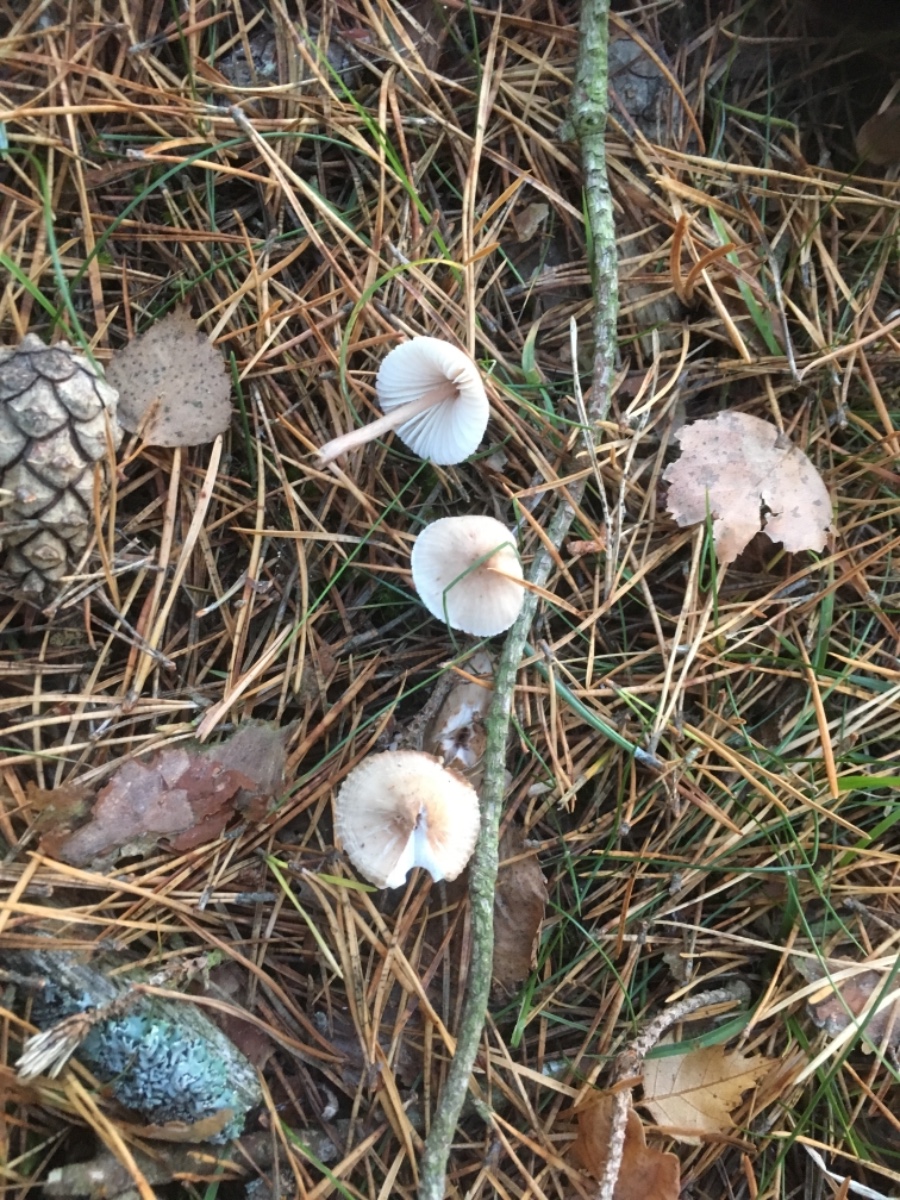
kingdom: Fungi
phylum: Basidiomycota
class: Agaricomycetes
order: Agaricales
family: Mycenaceae
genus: Mycena
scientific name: Mycena zephirus
